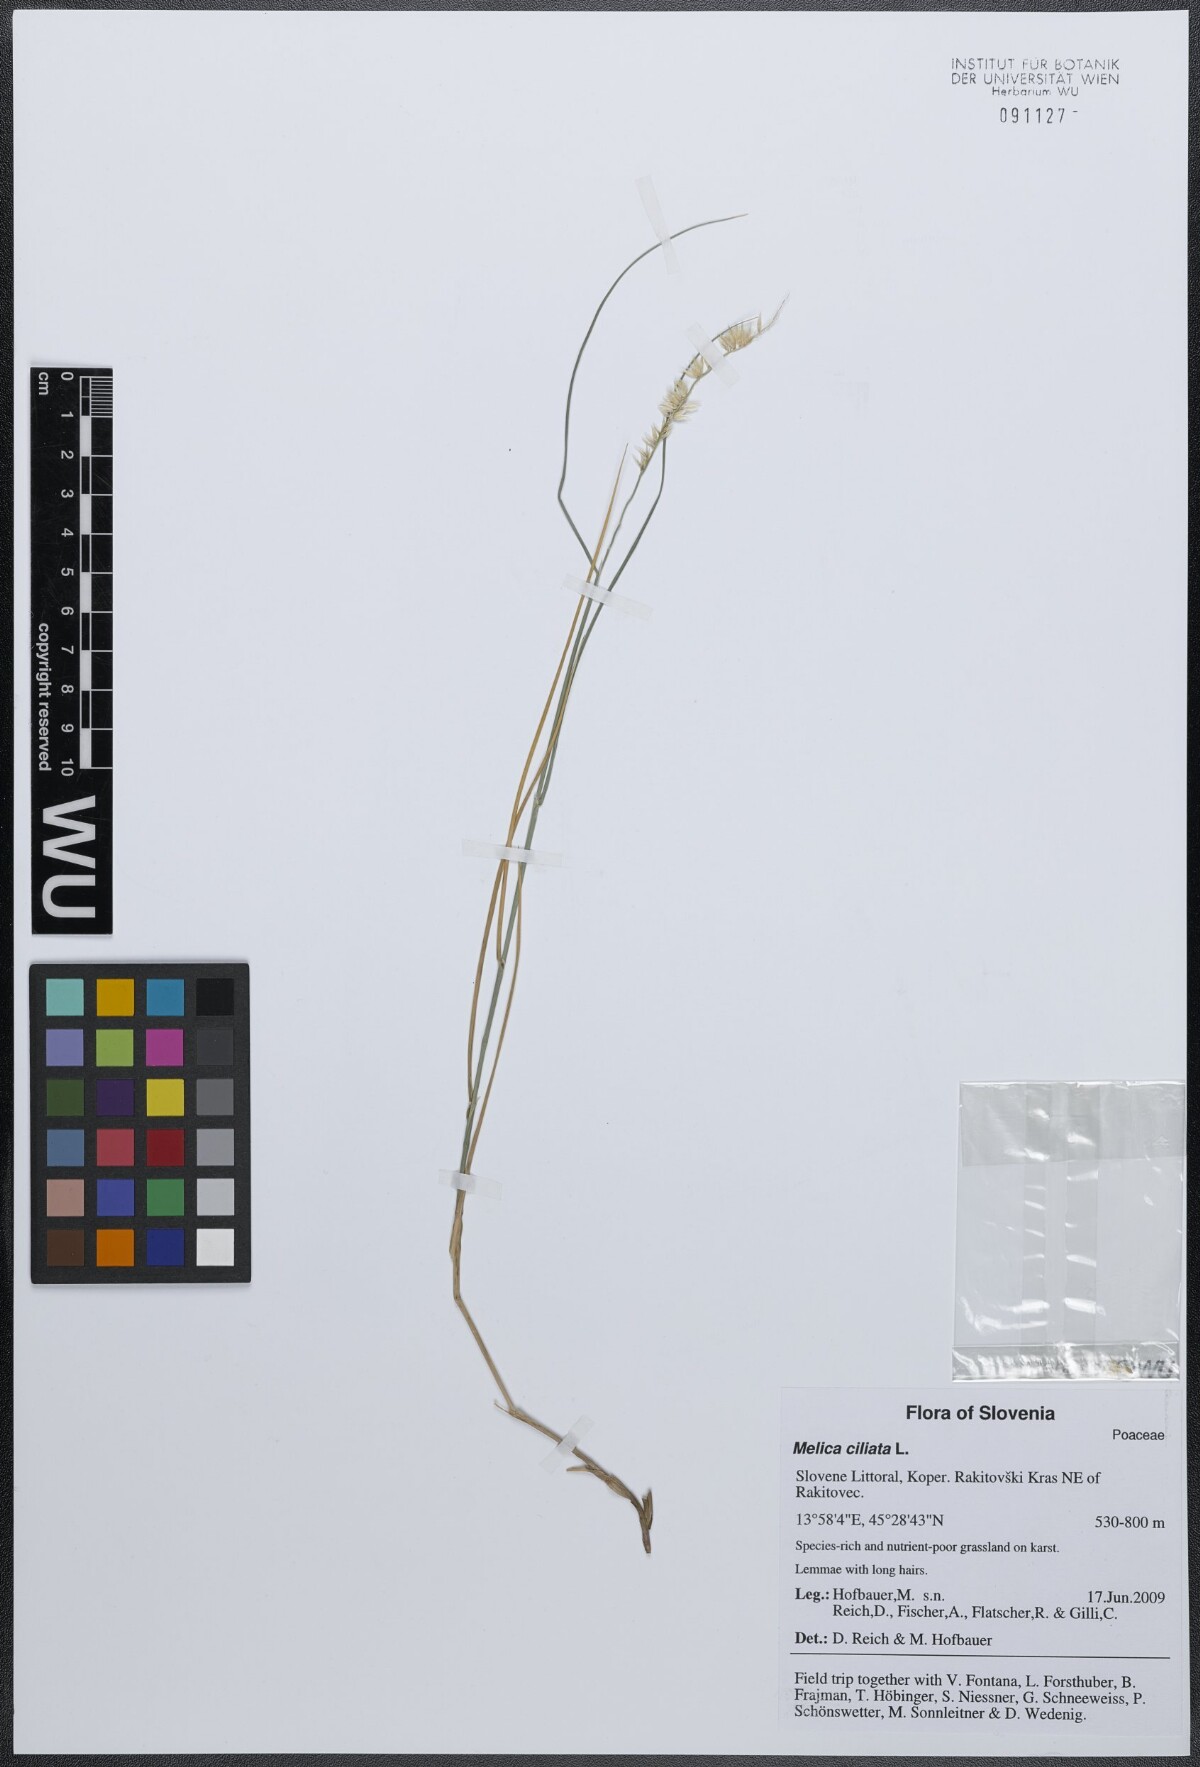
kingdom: Plantae
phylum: Tracheophyta
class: Liliopsida
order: Poales
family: Poaceae
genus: Melica
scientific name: Melica ciliata
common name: Hairy melicgrass
